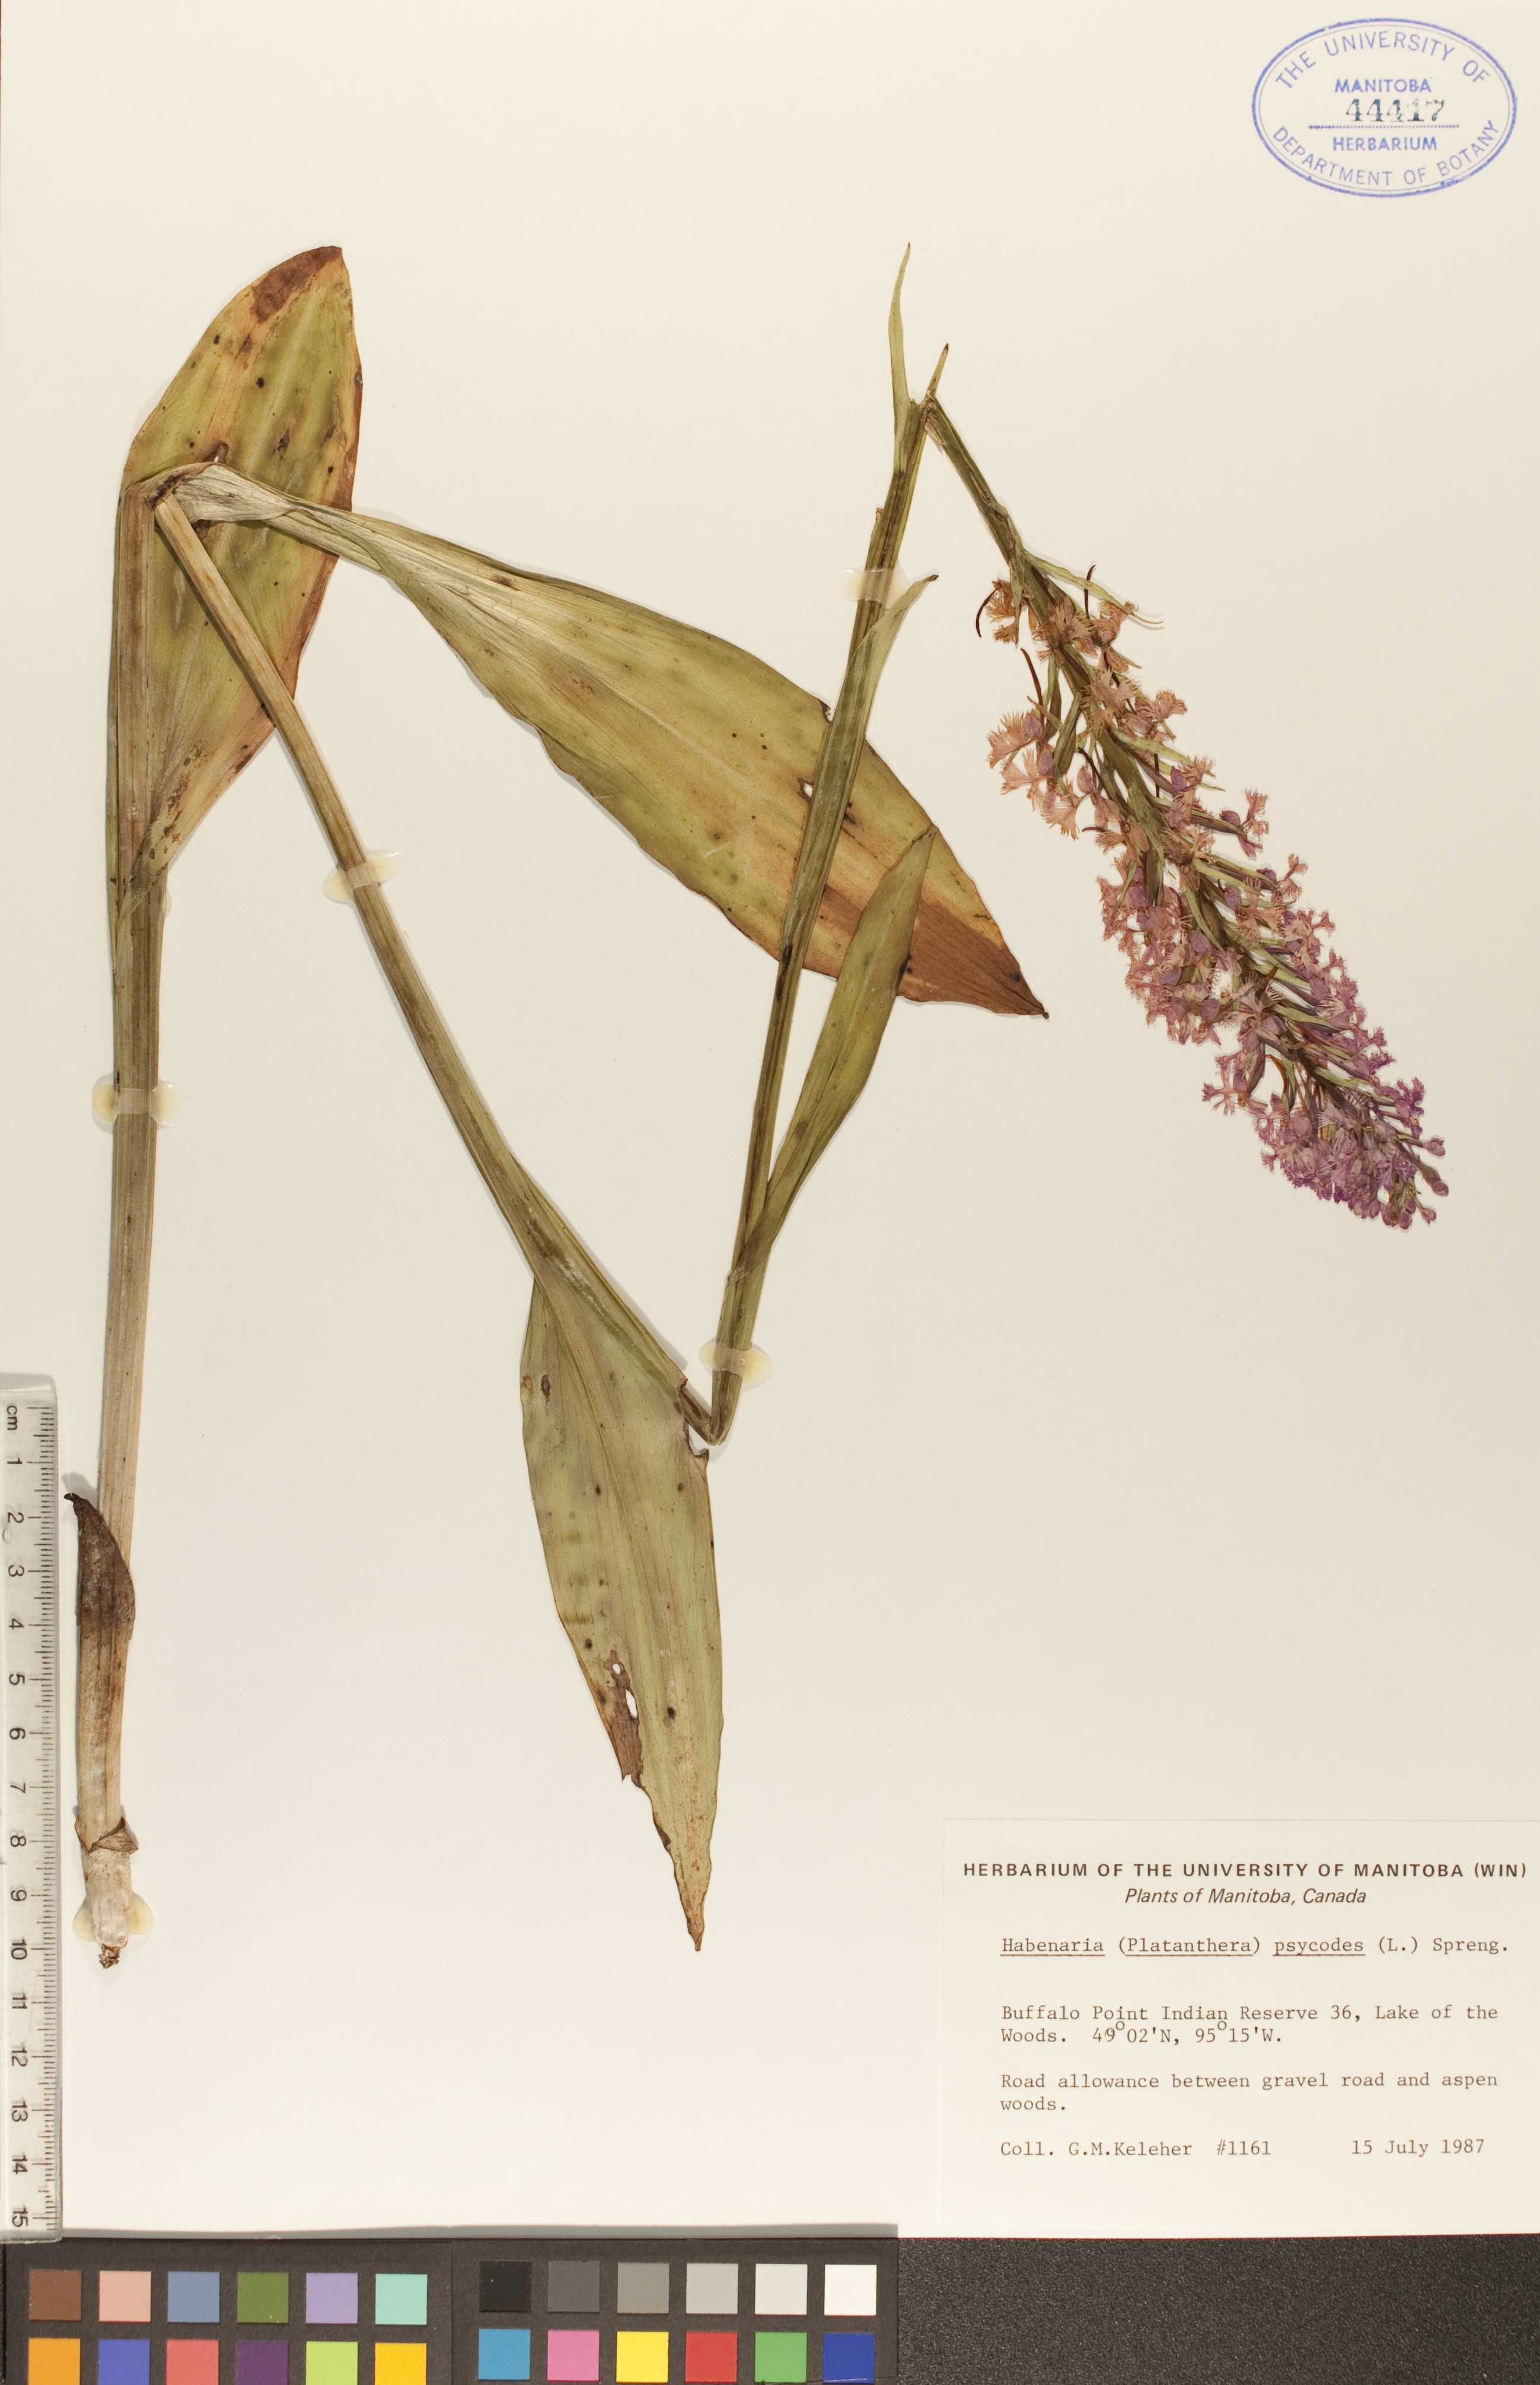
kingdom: Plantae
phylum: Tracheophyta
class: Liliopsida
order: Asparagales
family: Orchidaceae
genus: Platanthera
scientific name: Platanthera psycodes
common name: Lesser purple fringed orchid
